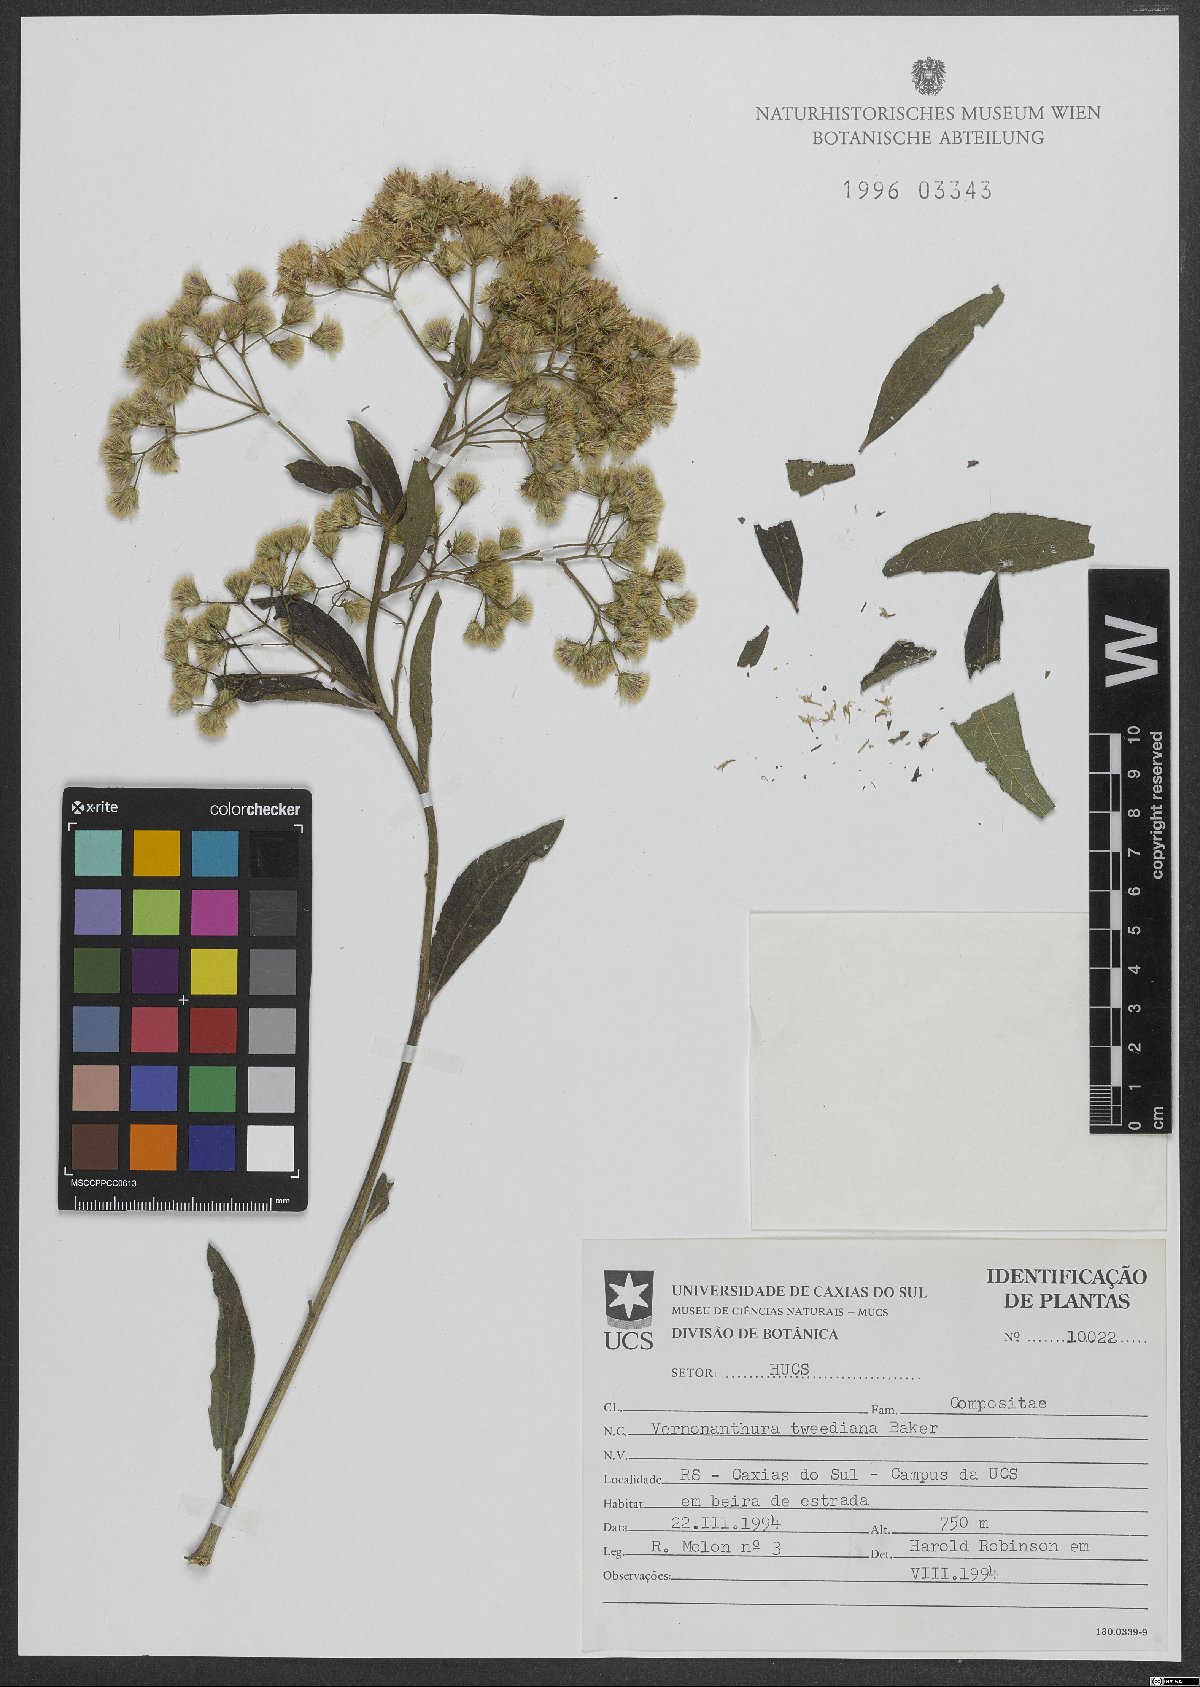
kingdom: Plantae
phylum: Tracheophyta
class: Magnoliopsida
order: Asterales
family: Asteraceae
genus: Vernonanthura
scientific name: Vernonanthura tweedieana
